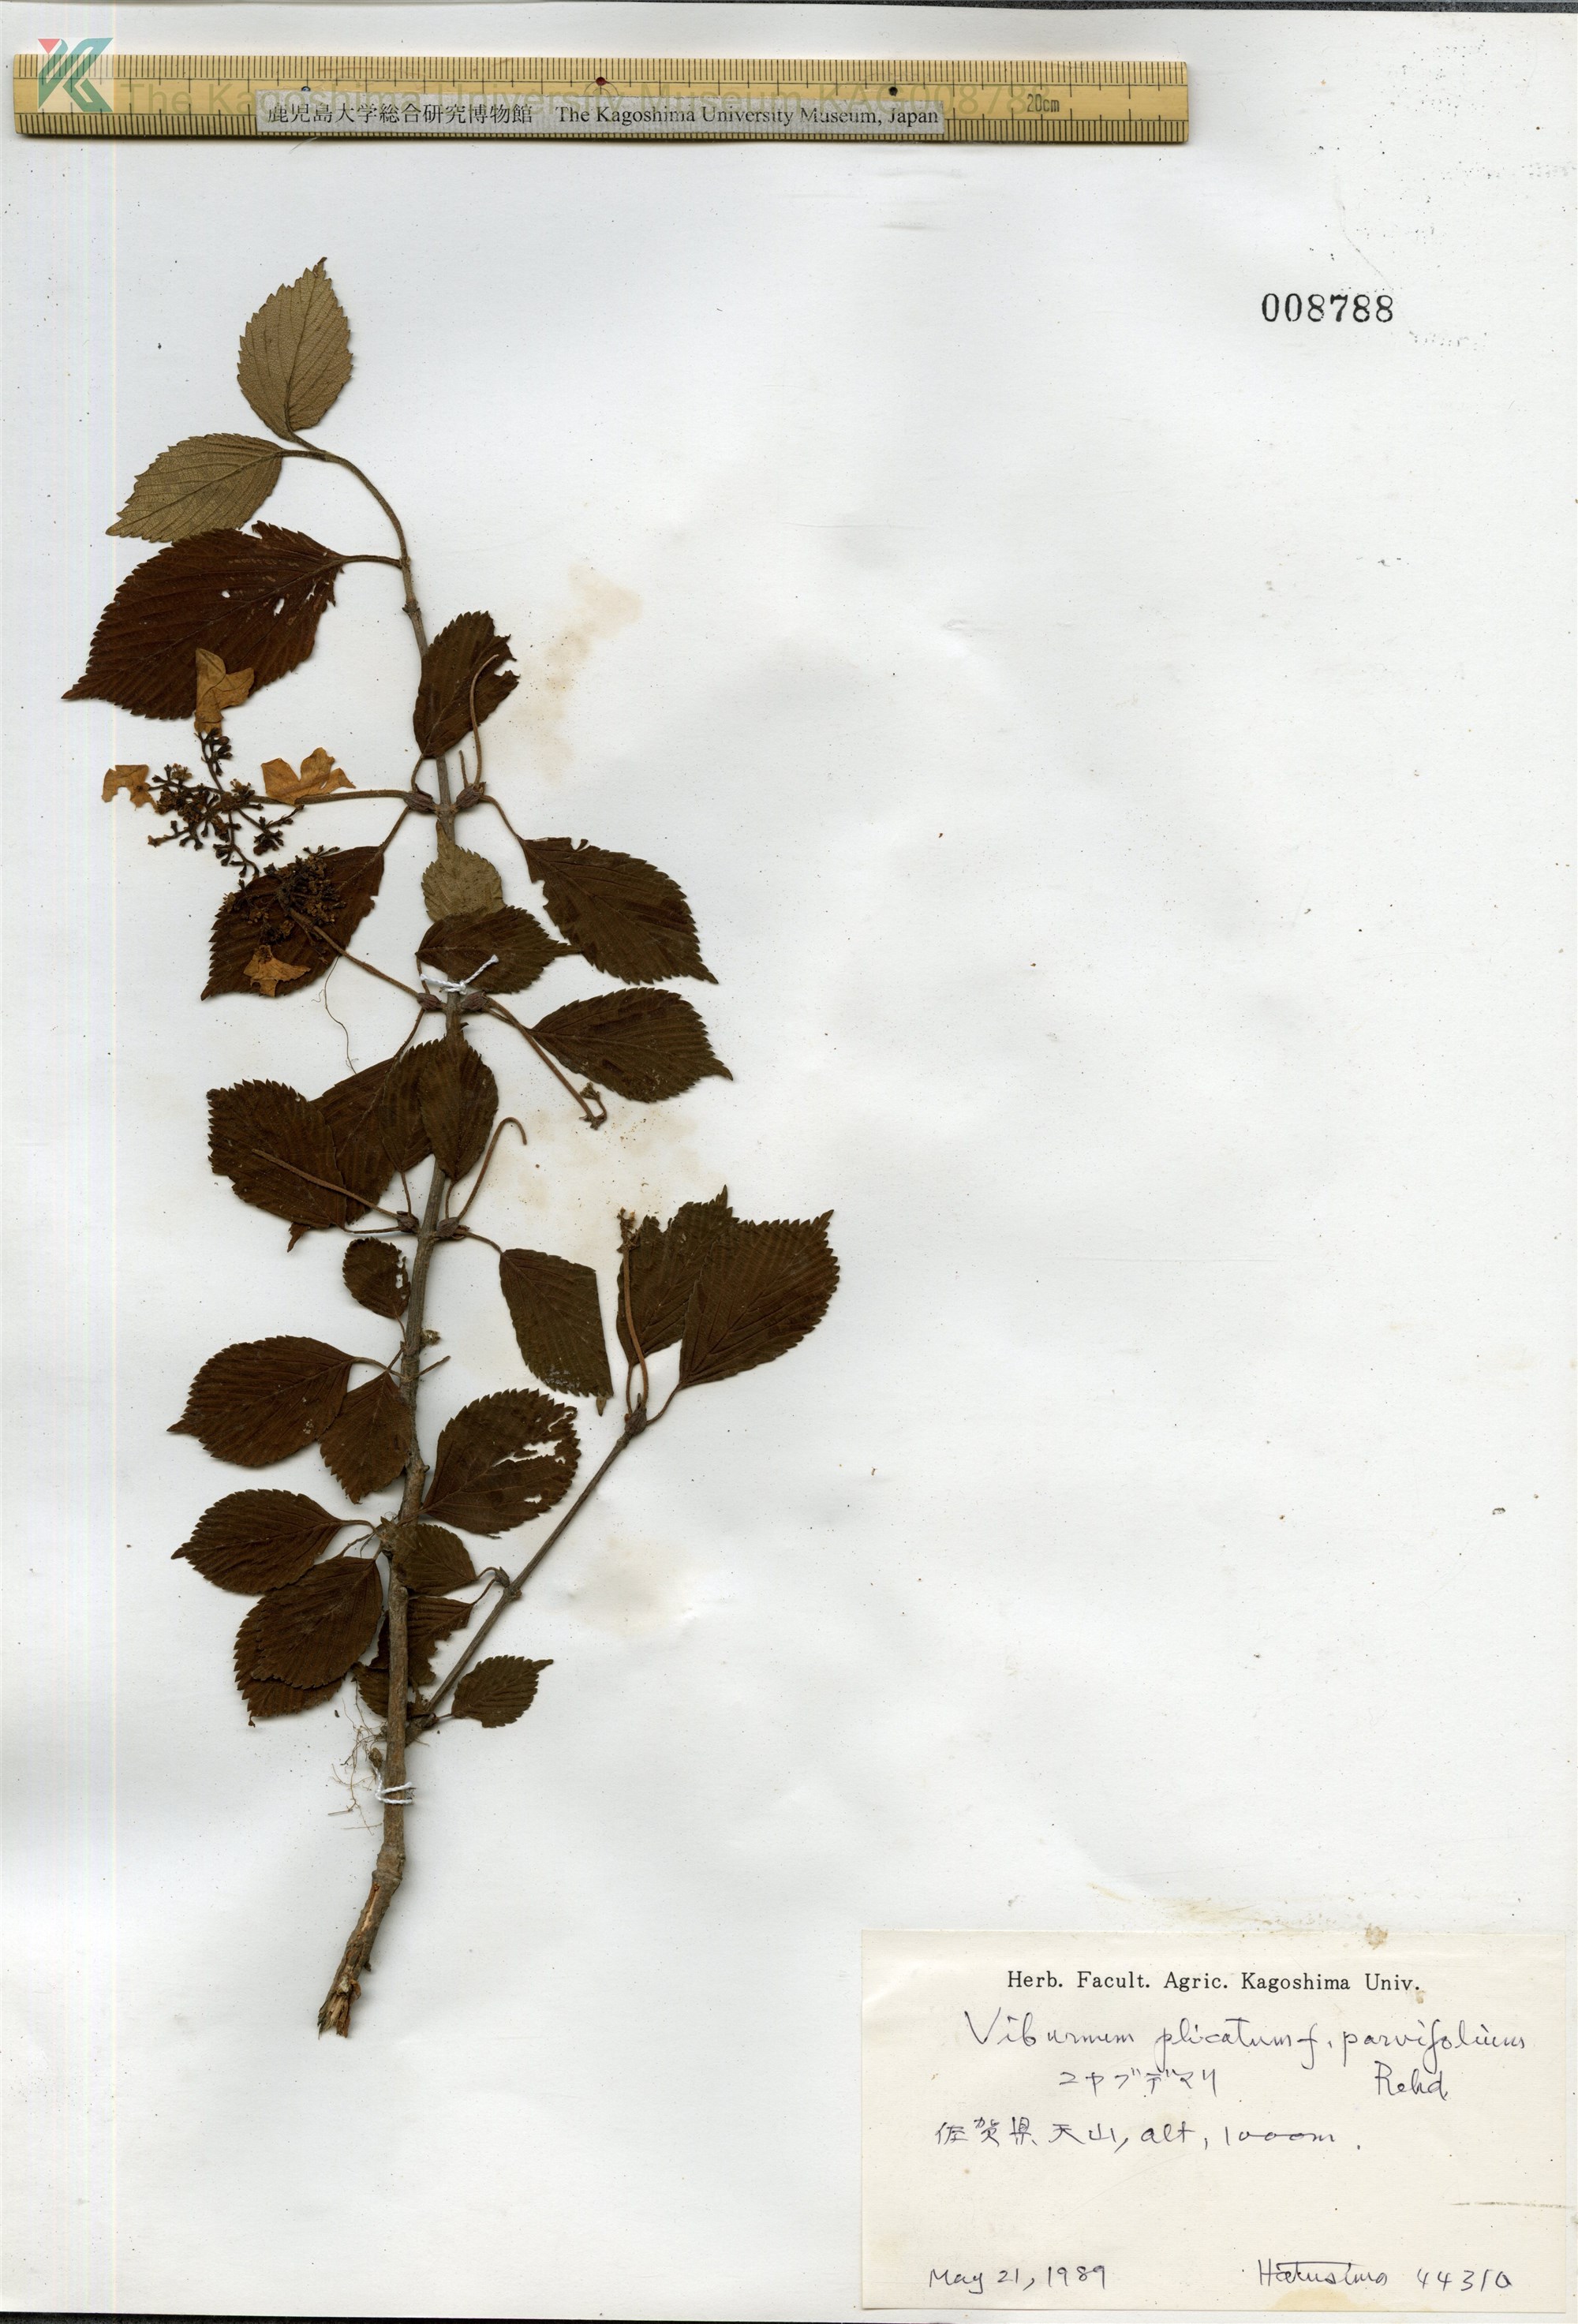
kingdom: Plantae
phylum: Tracheophyta
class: Magnoliopsida
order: Dipsacales
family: Viburnaceae
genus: Viburnum
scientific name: Viburnum plicatum
